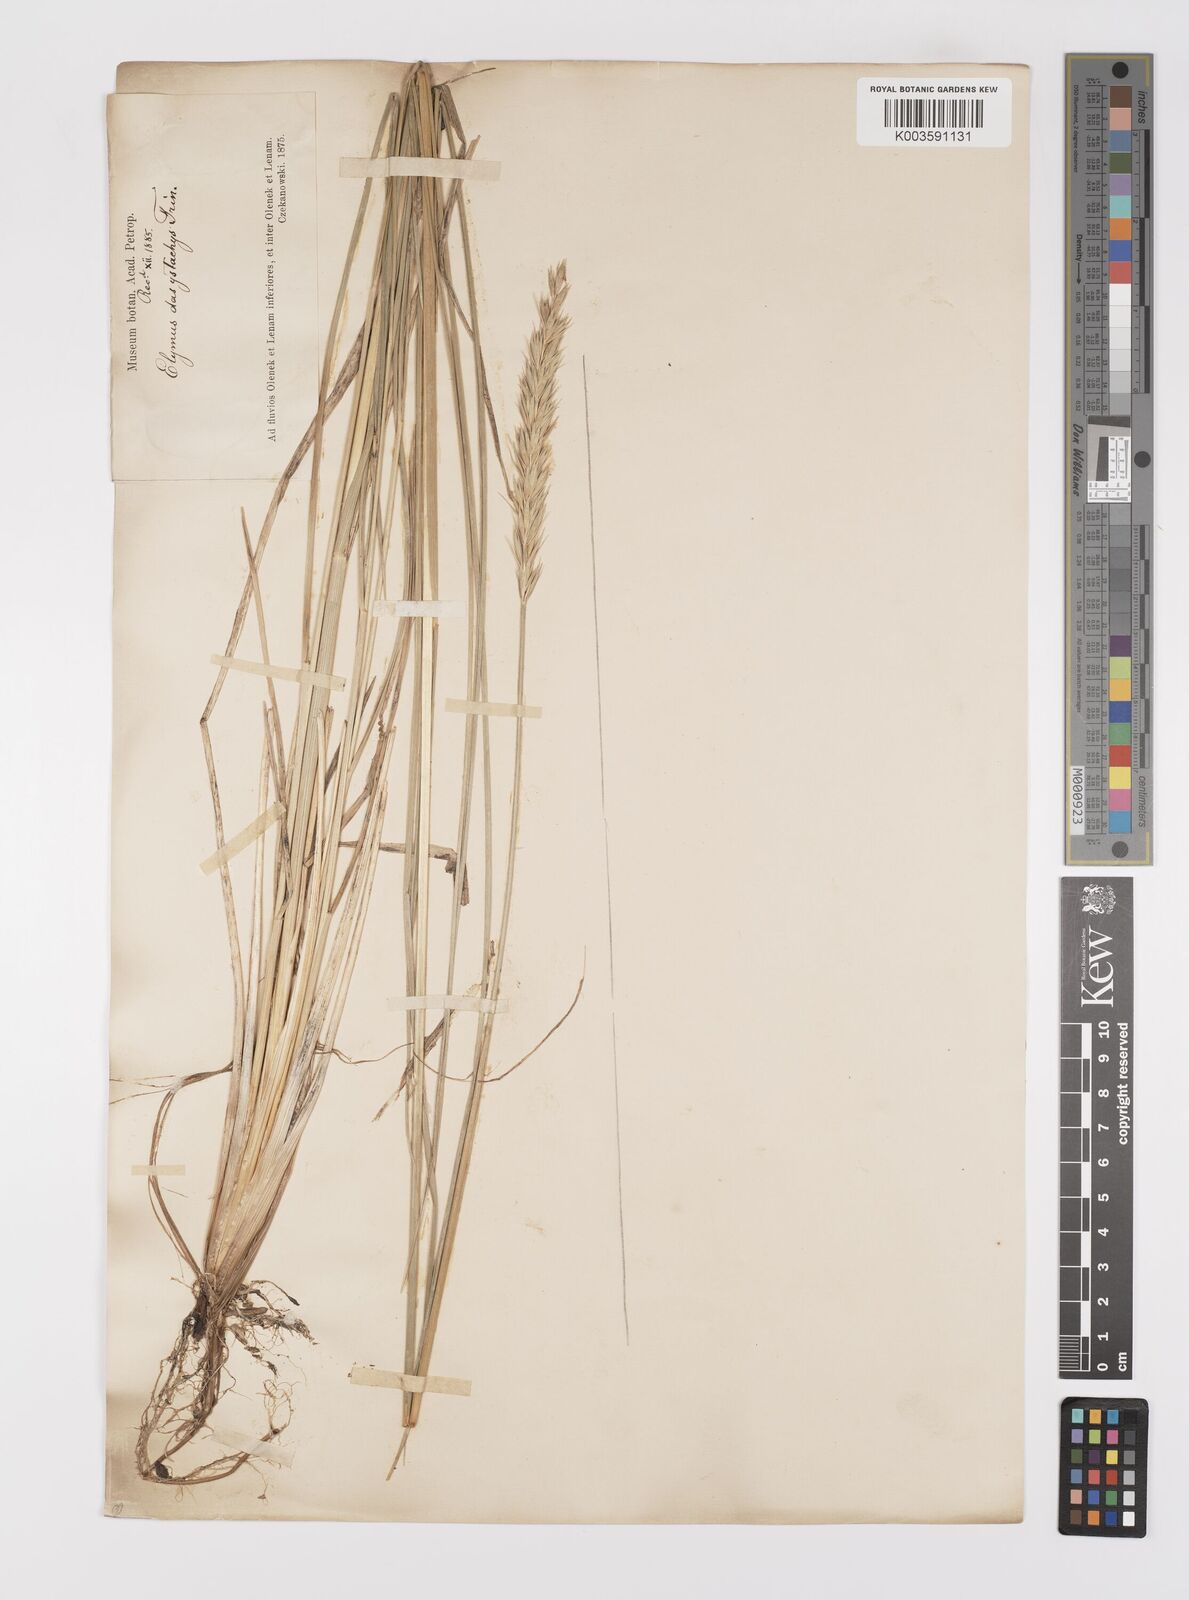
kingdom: Plantae
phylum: Tracheophyta
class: Liliopsida
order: Poales
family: Poaceae
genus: Leymus
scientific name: Leymus secalinus
